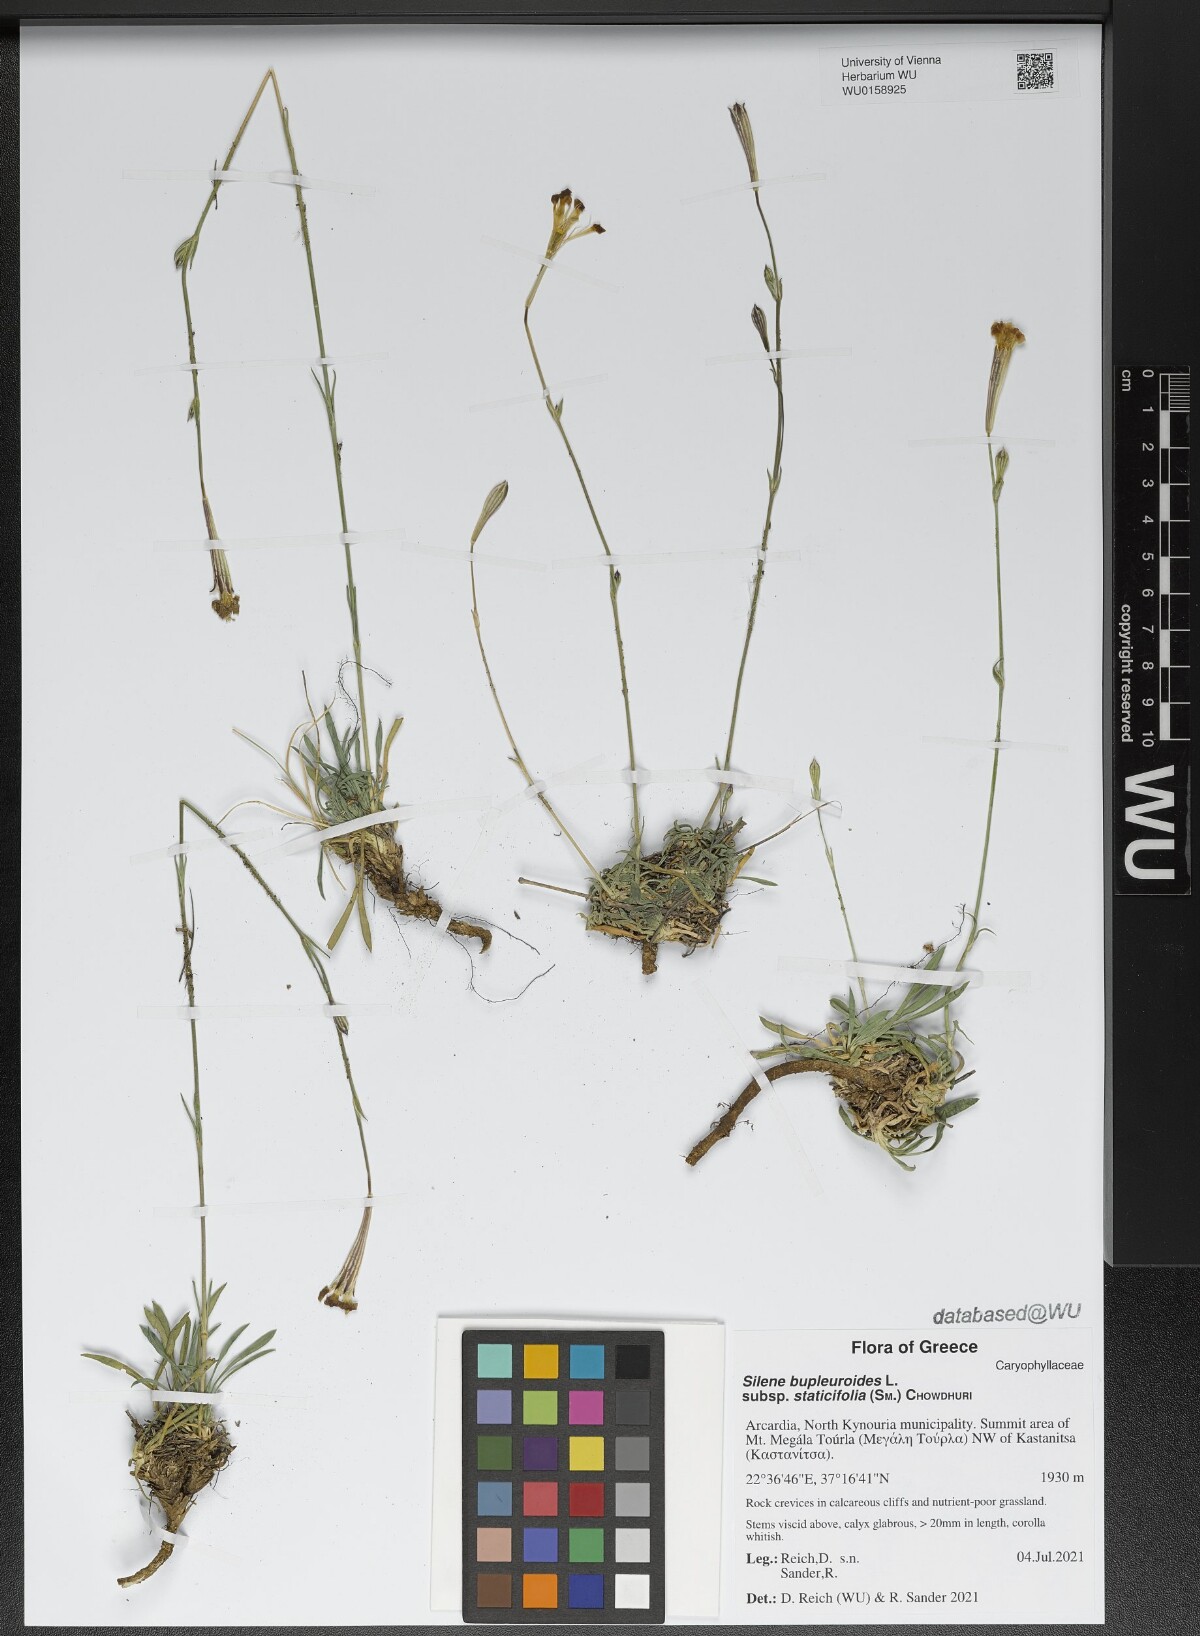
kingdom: Plantae
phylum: Tracheophyta
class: Magnoliopsida
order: Caryophyllales
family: Caryophyllaceae
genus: Silene
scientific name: Silene bupleuroides
